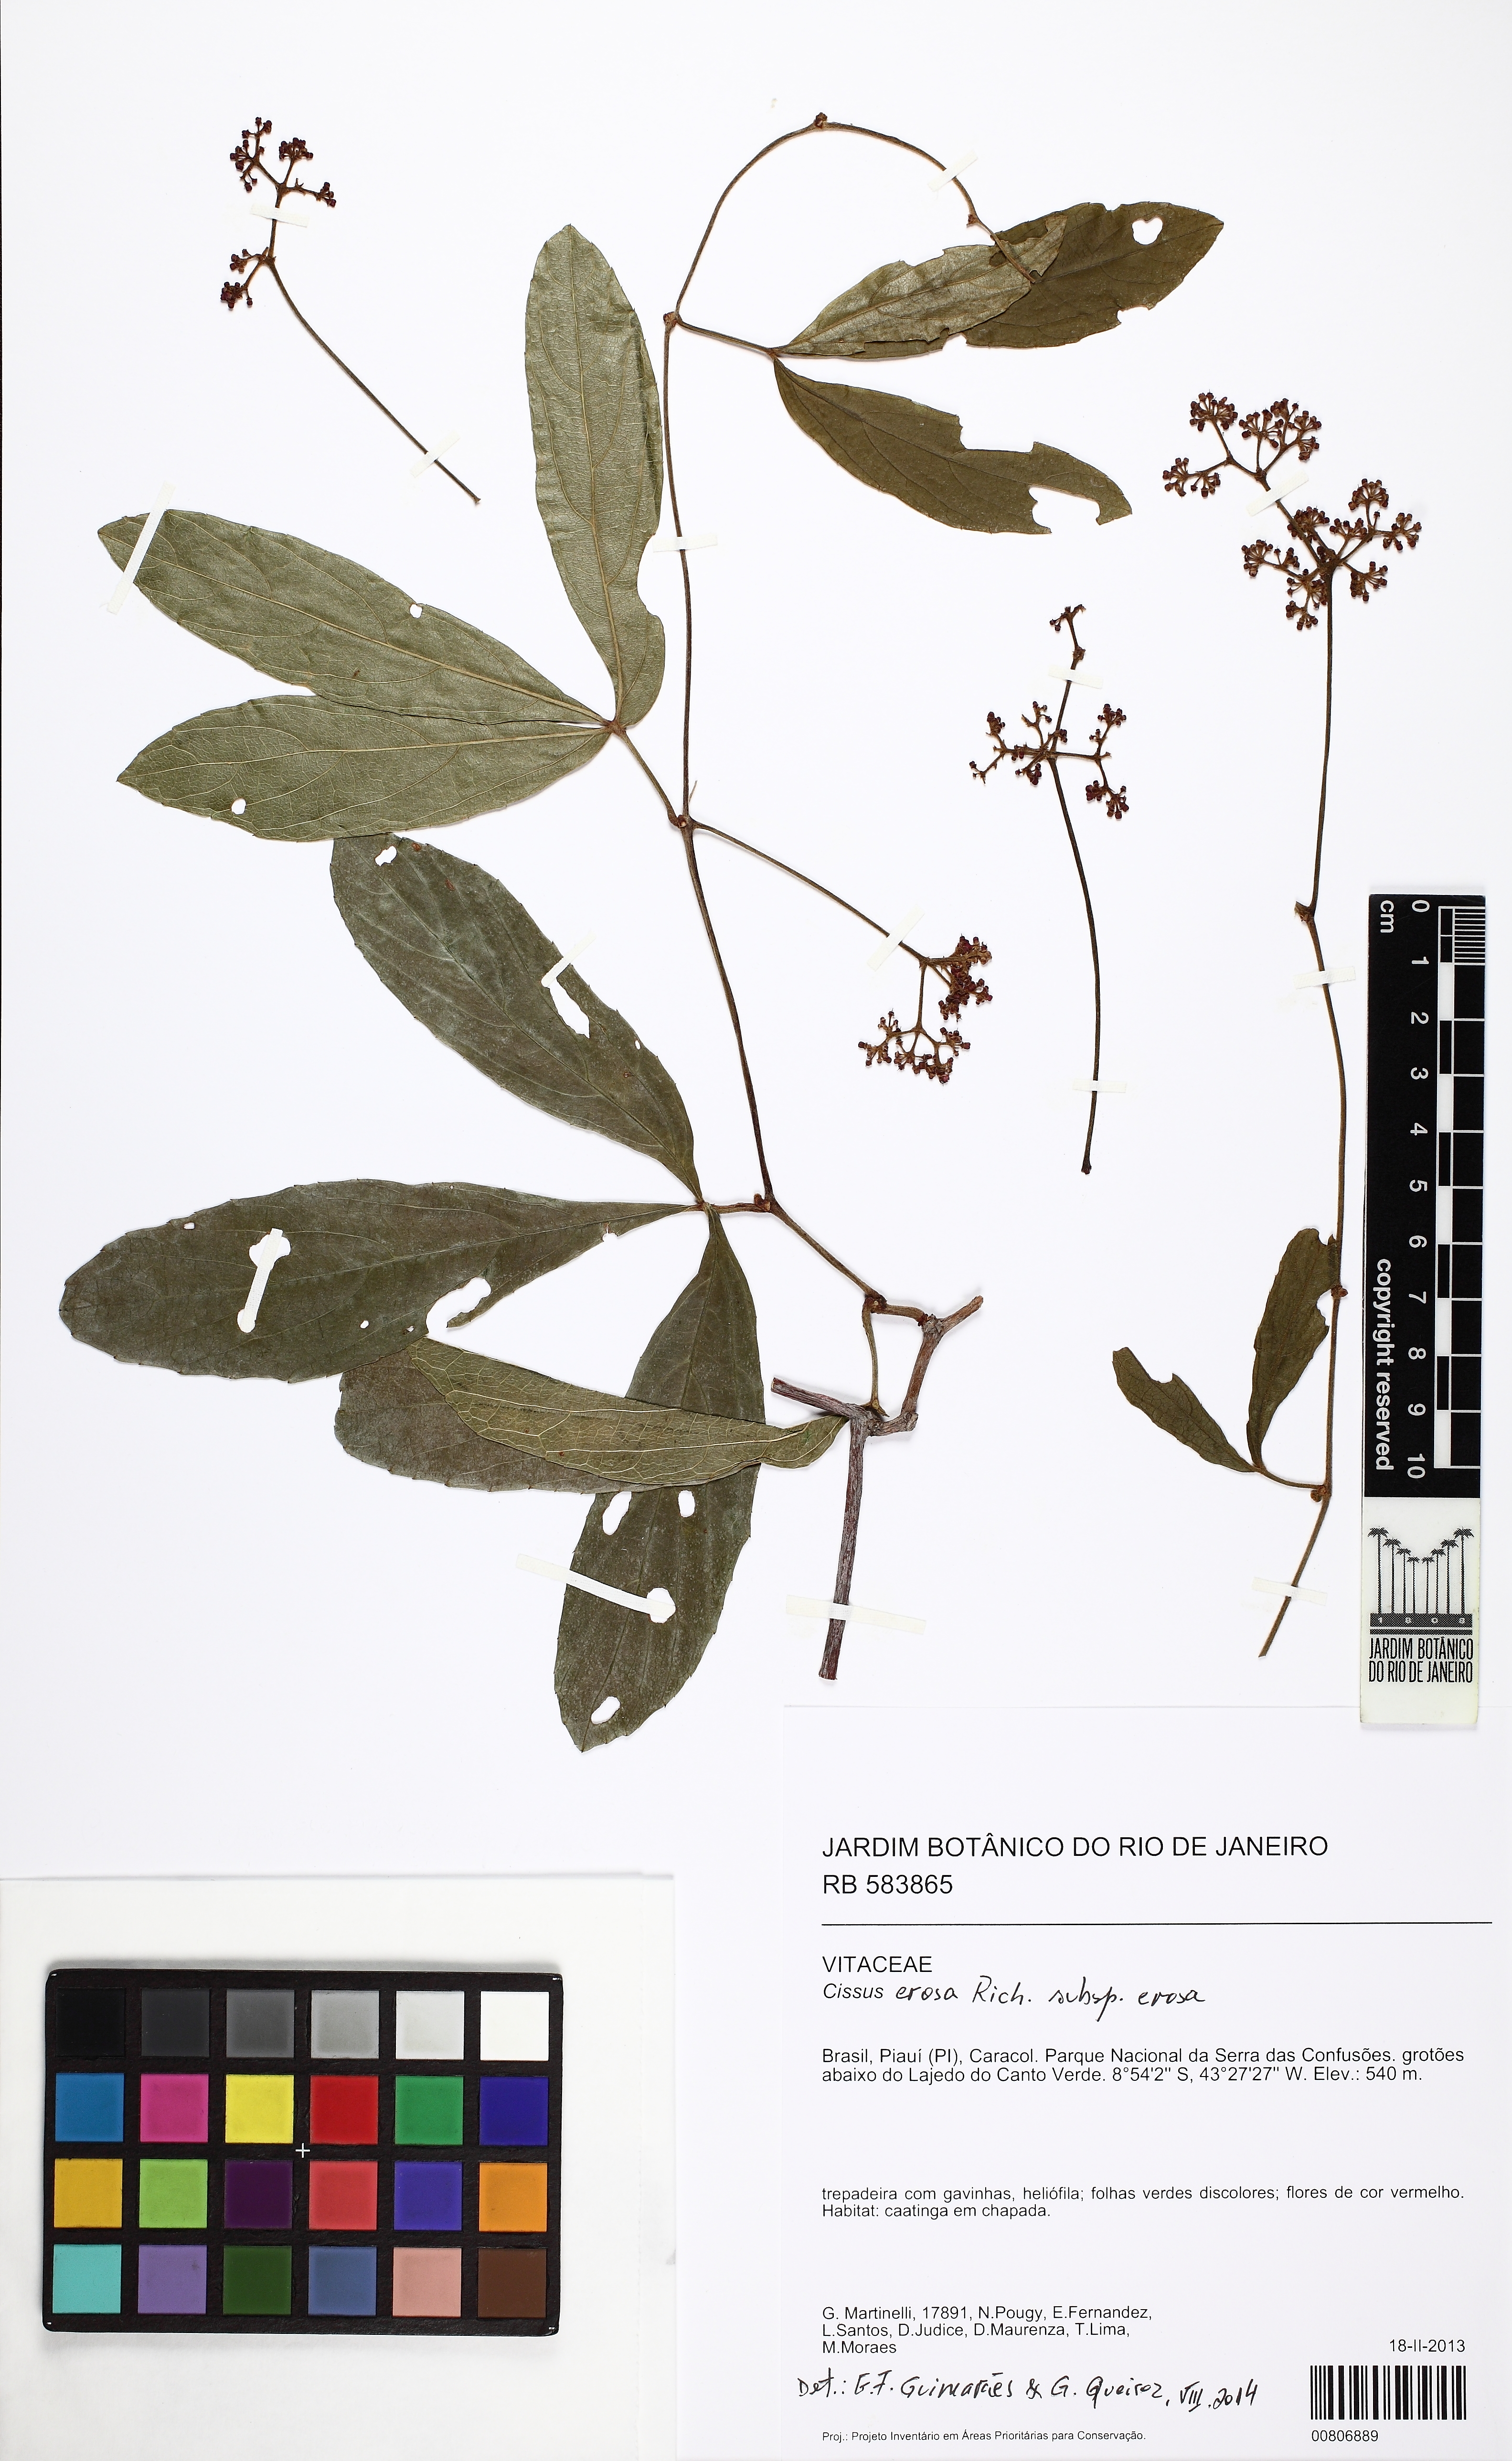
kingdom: Plantae
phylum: Tracheophyta
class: Magnoliopsida
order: Vitales
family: Vitaceae
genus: Cissus
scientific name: Cissus erosa
